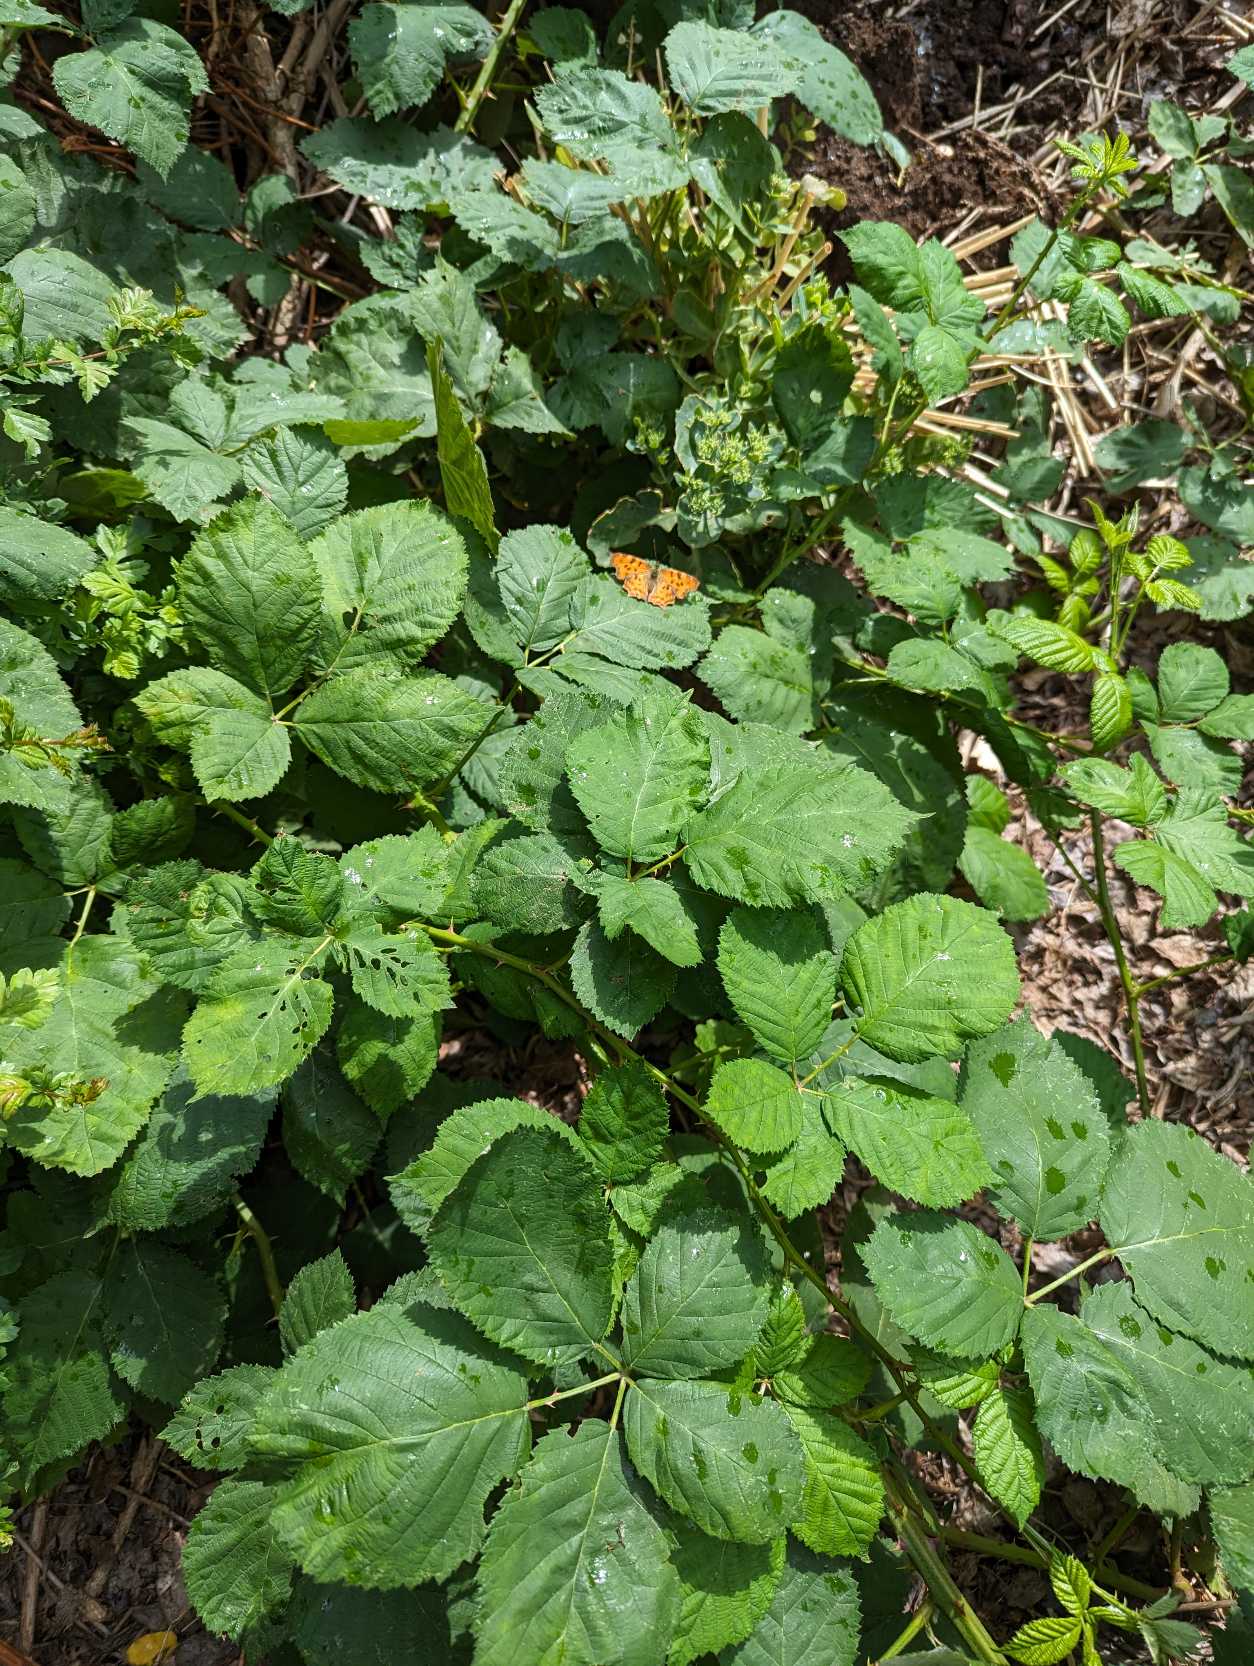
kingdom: Animalia
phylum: Arthropoda
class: Insecta
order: Lepidoptera
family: Nymphalidae
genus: Polygonia
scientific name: Polygonia c-album
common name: Det hvide C
